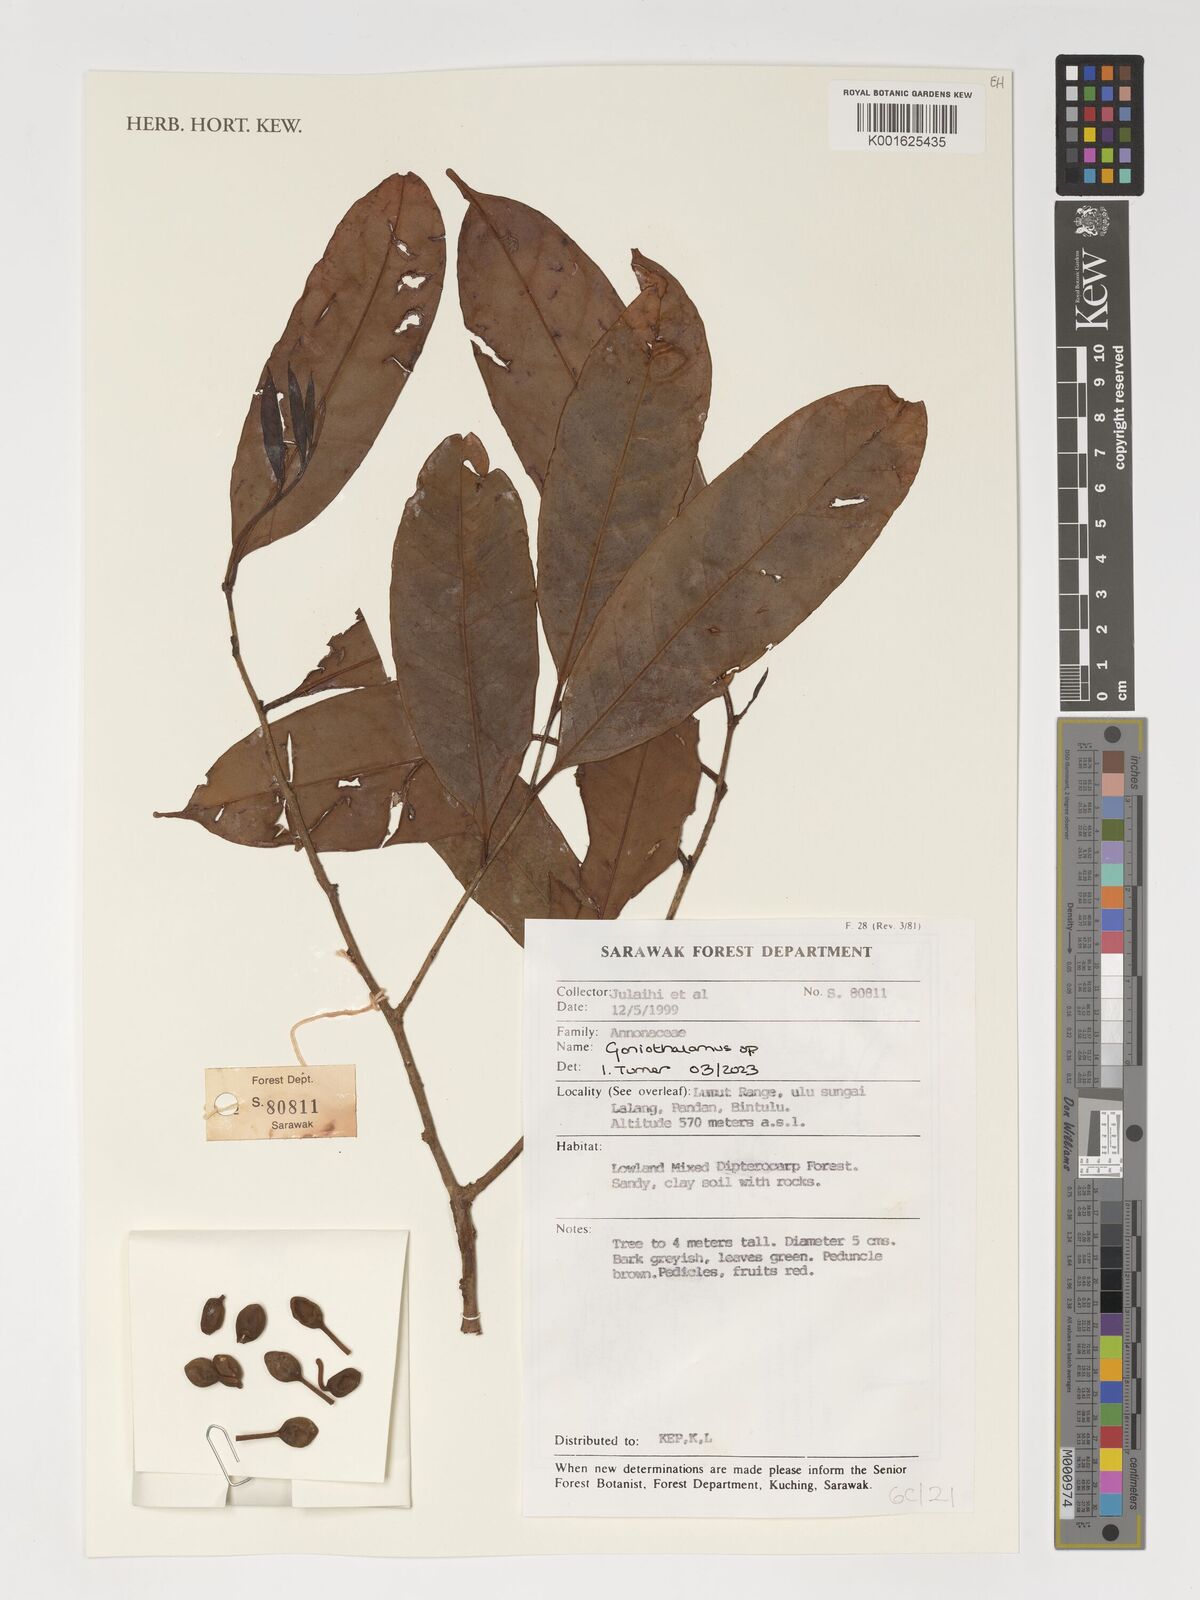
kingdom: Plantae
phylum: Tracheophyta
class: Magnoliopsida
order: Magnoliales
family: Annonaceae
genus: Goniothalamus
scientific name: Goniothalamus
